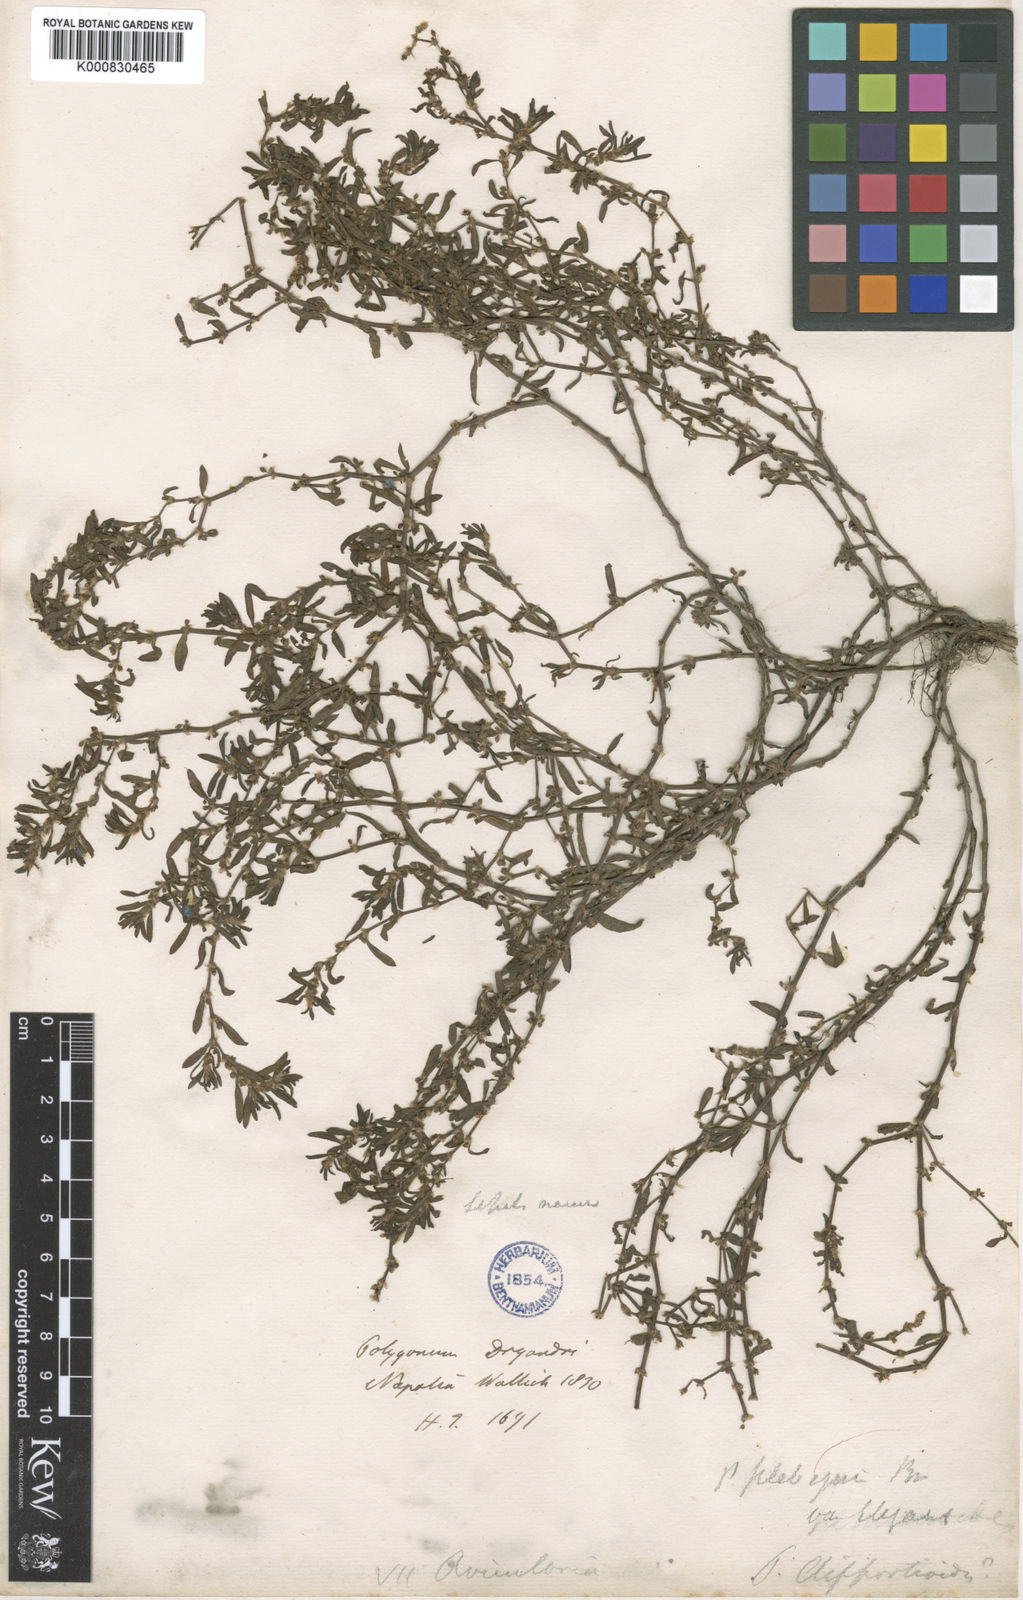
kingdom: Plantae
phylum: Tracheophyta
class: Magnoliopsida
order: Caryophyllales
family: Polygonaceae
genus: Polygonum
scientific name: Polygonum plebeium
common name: Common knotweed
